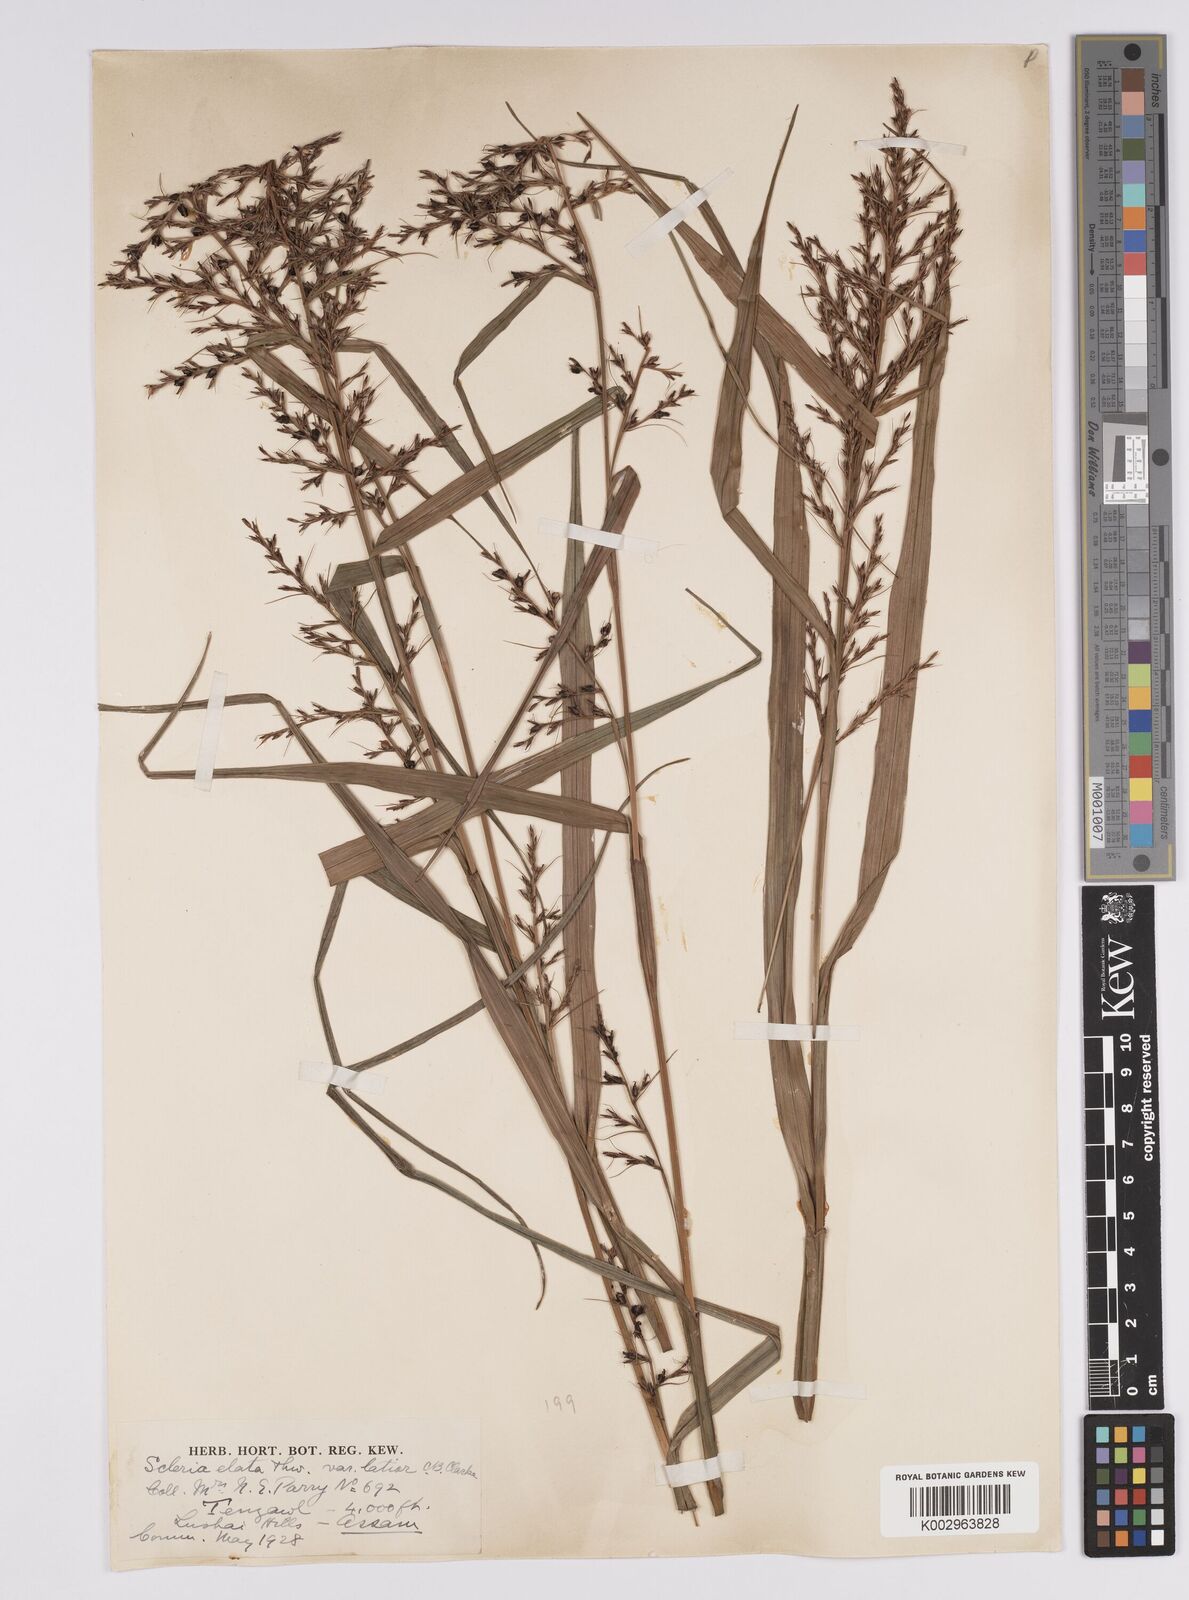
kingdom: Plantae
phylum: Tracheophyta
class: Liliopsida
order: Poales
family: Cyperaceae
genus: Scleria
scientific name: Scleria terrestris
